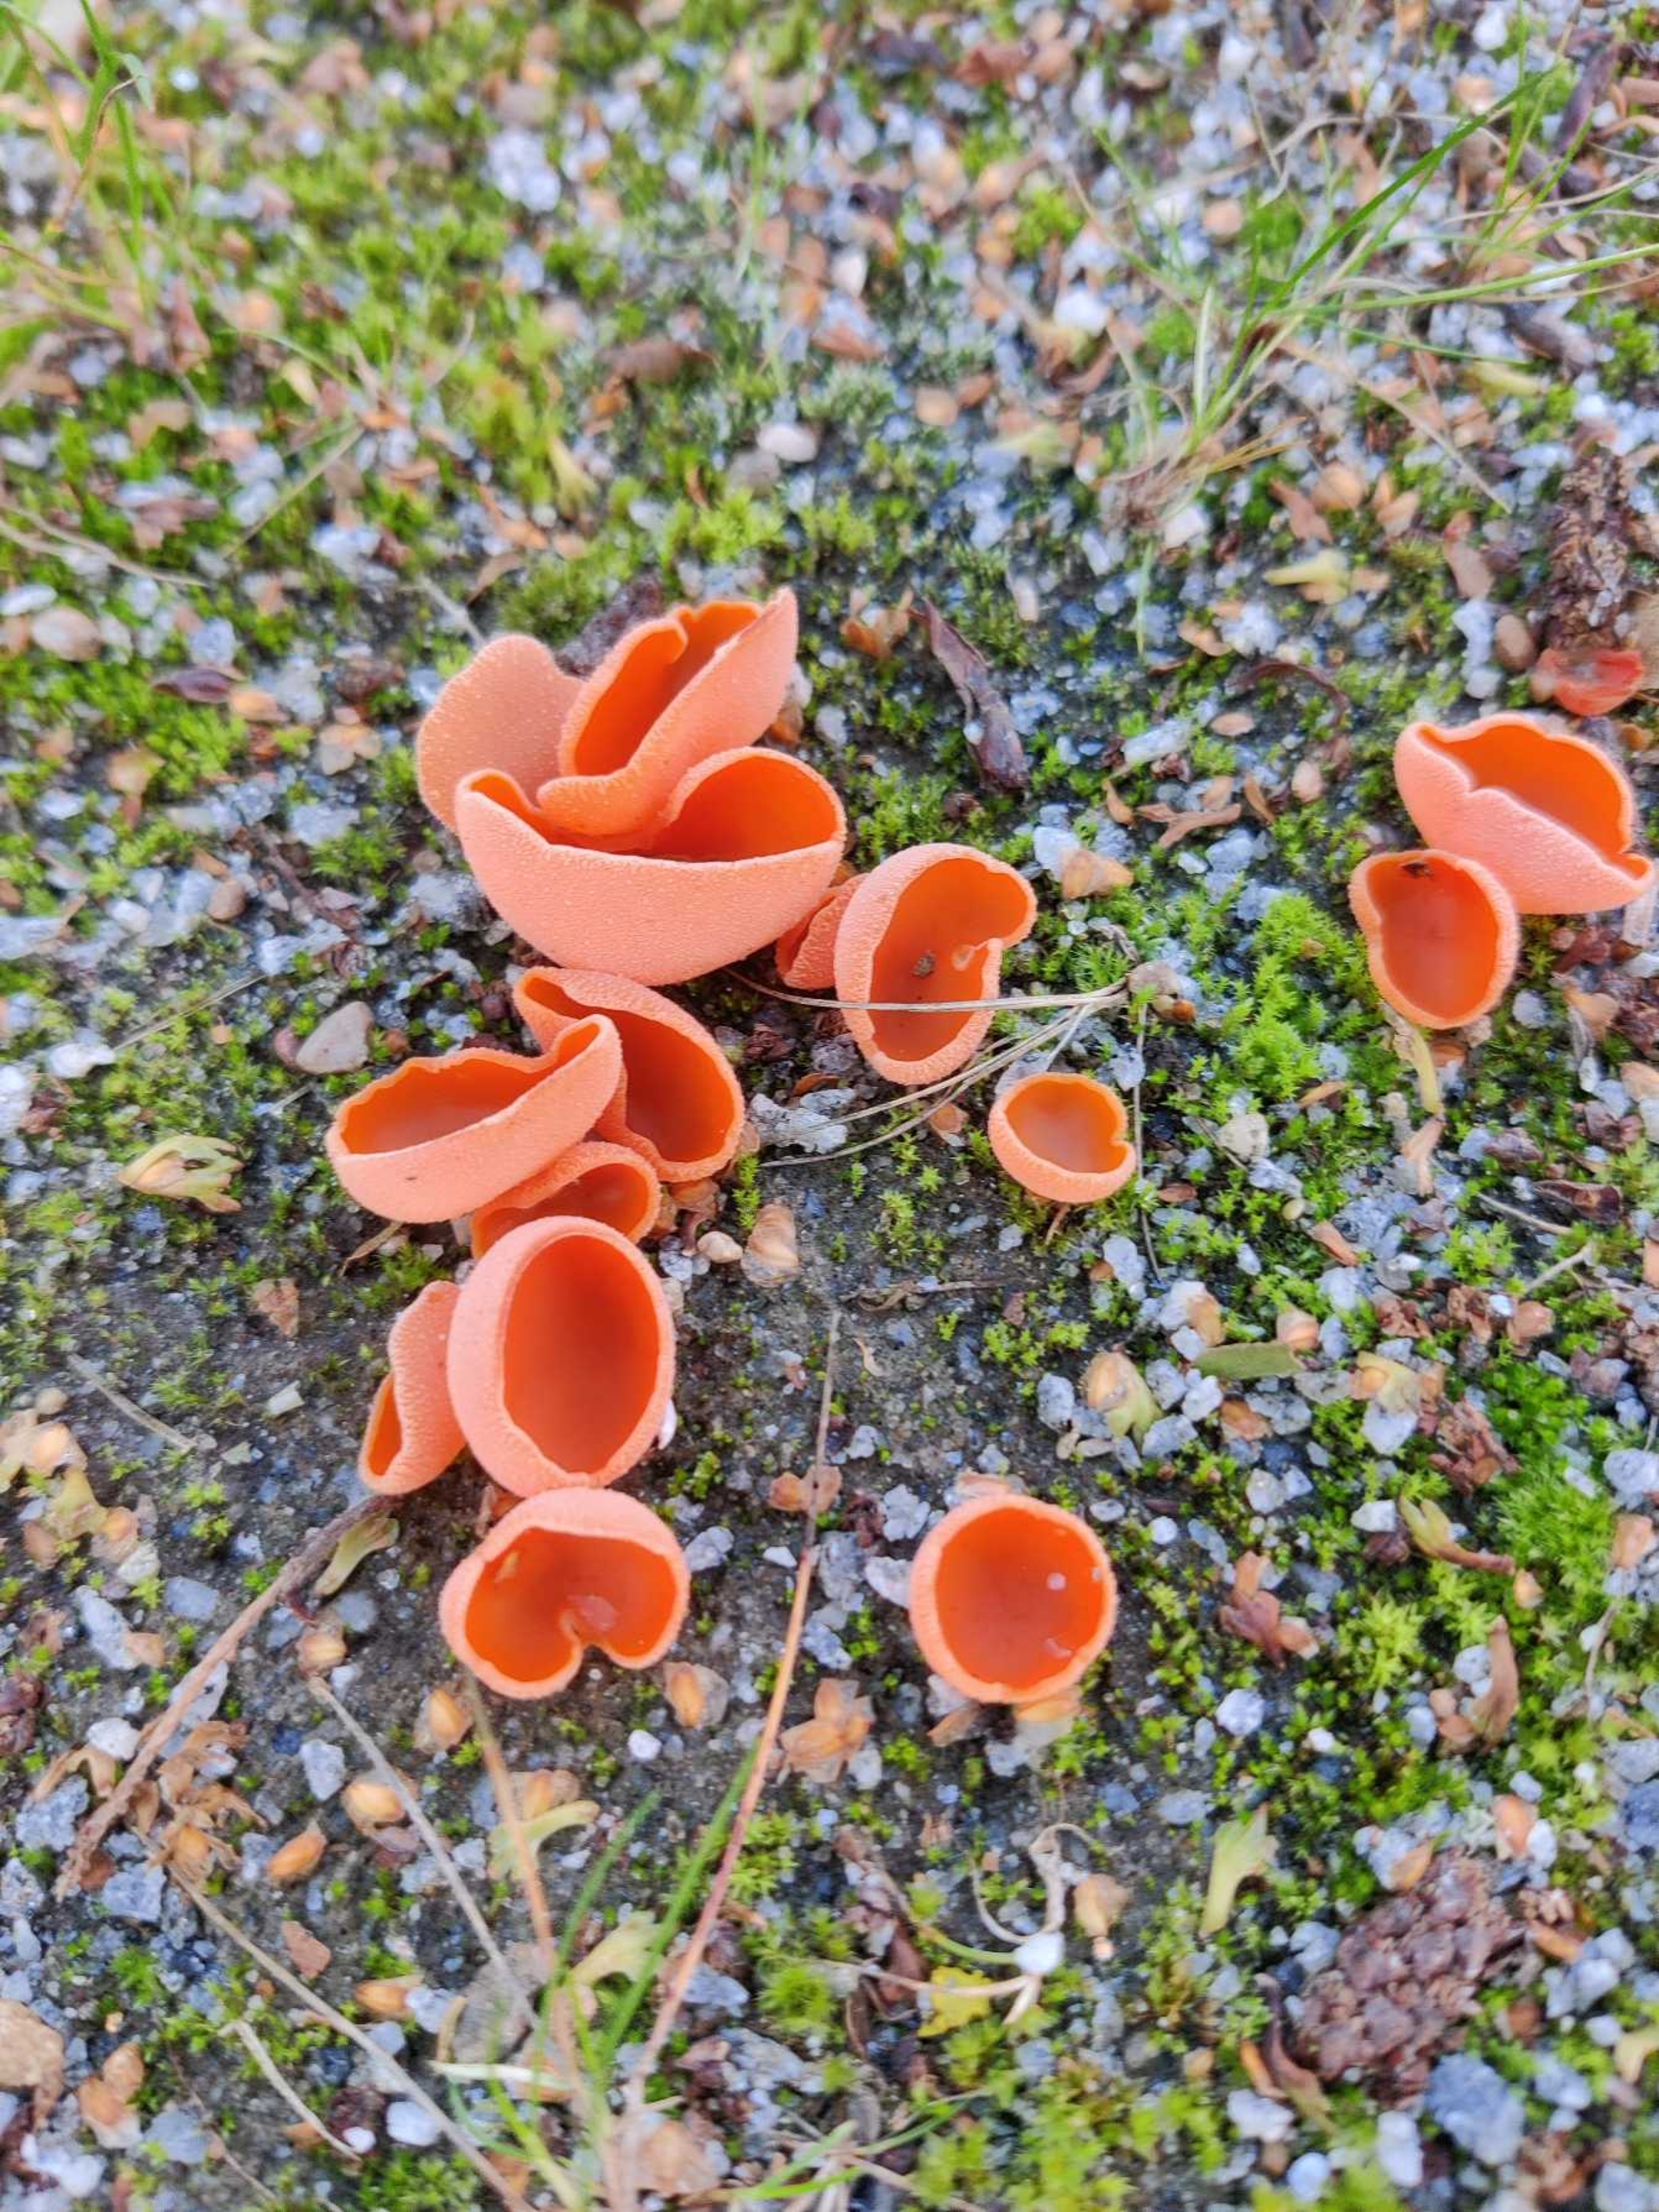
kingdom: Fungi
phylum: Ascomycota
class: Pezizomycetes
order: Pezizales
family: Pyronemataceae
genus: Aleuria
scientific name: Aleuria aurantia
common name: Almindelig orangebæger
